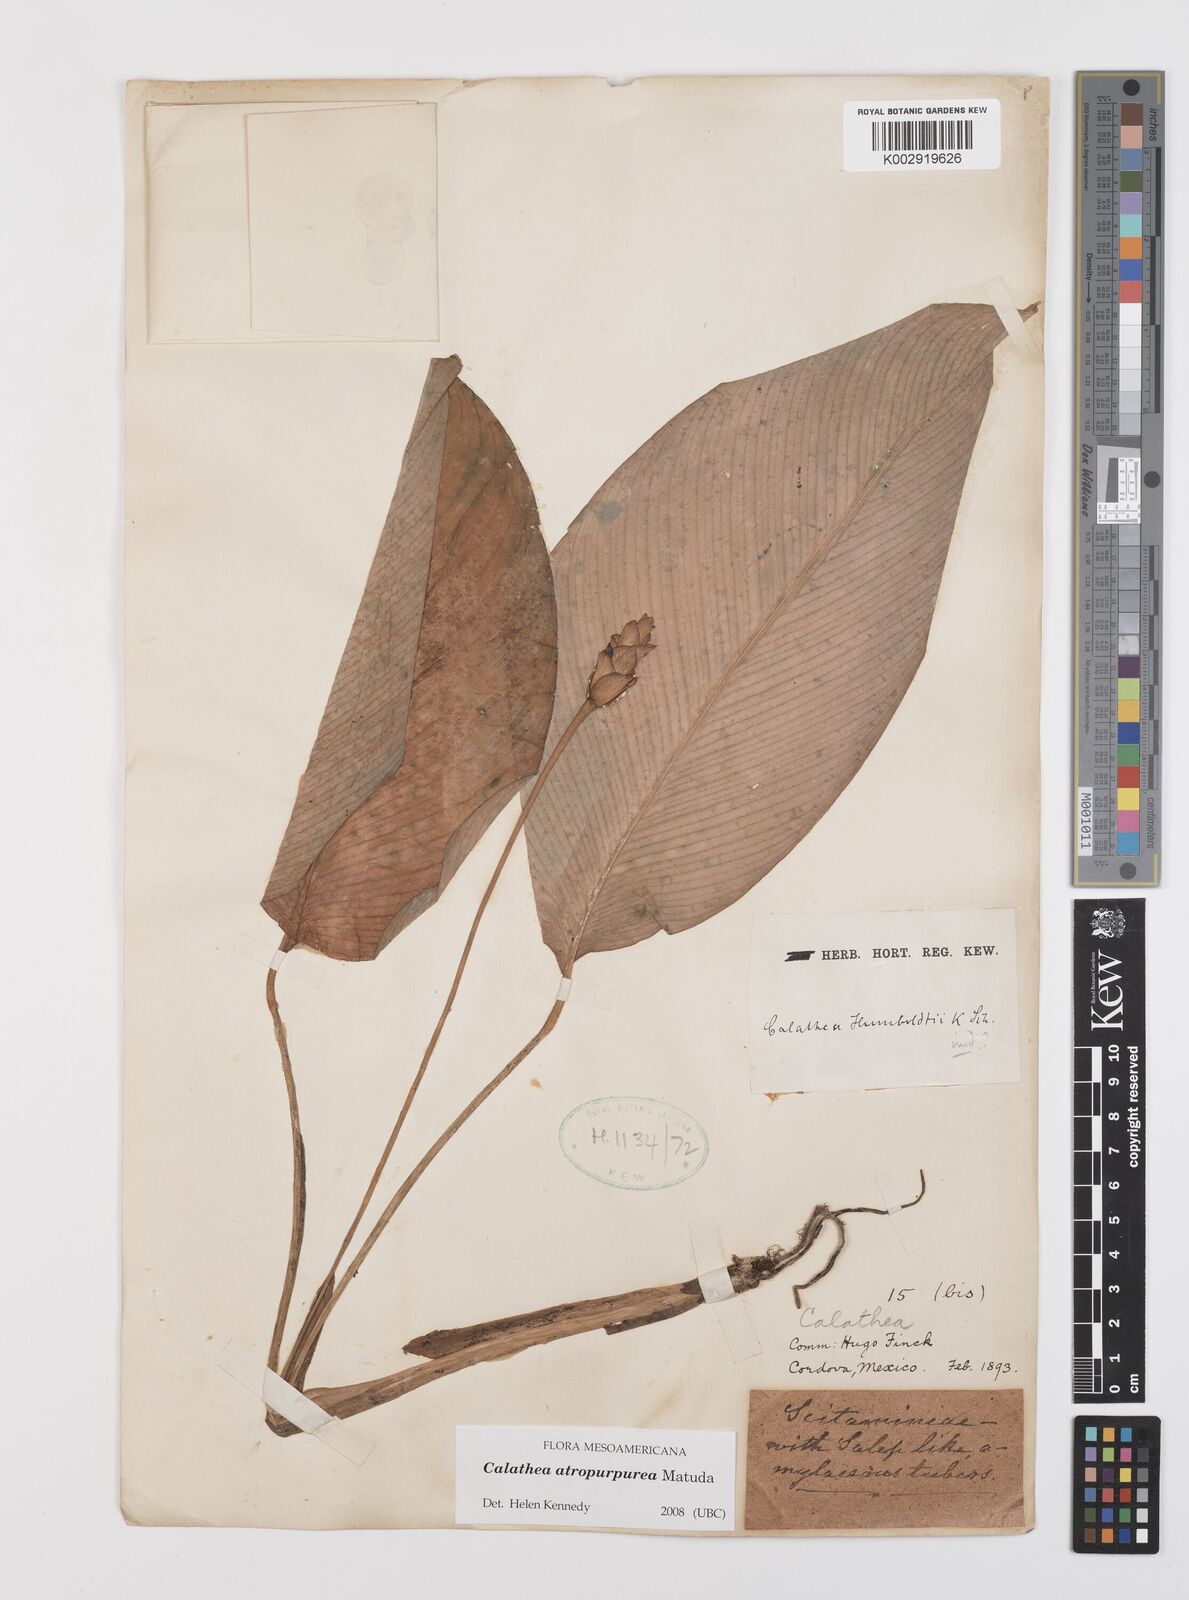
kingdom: Plantae
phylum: Tracheophyta
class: Liliopsida
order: Zingiberales
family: Marantaceae
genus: Goeppertia
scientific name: Goeppertia atropurpurea
